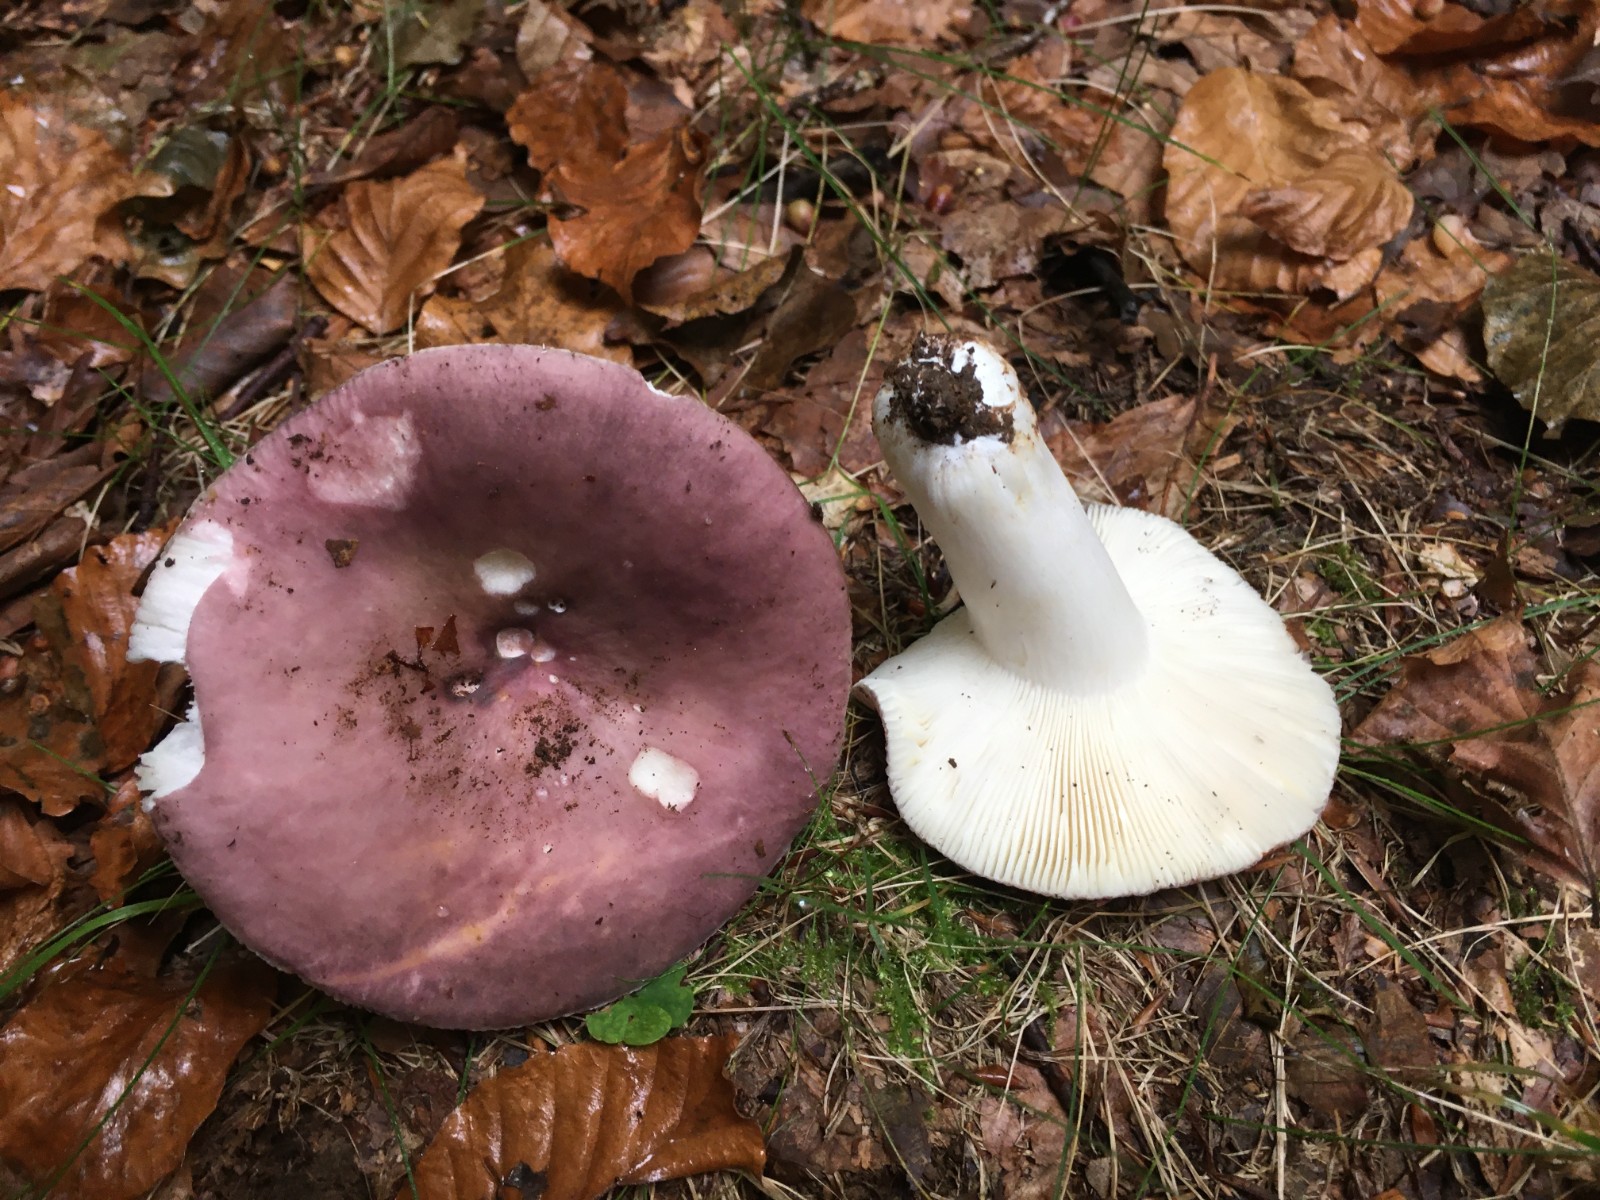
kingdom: Fungi
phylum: Basidiomycota
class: Agaricomycetes
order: Russulales
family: Russulaceae
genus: Russula
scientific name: Russula cyanoxantha
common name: broget skørhat
